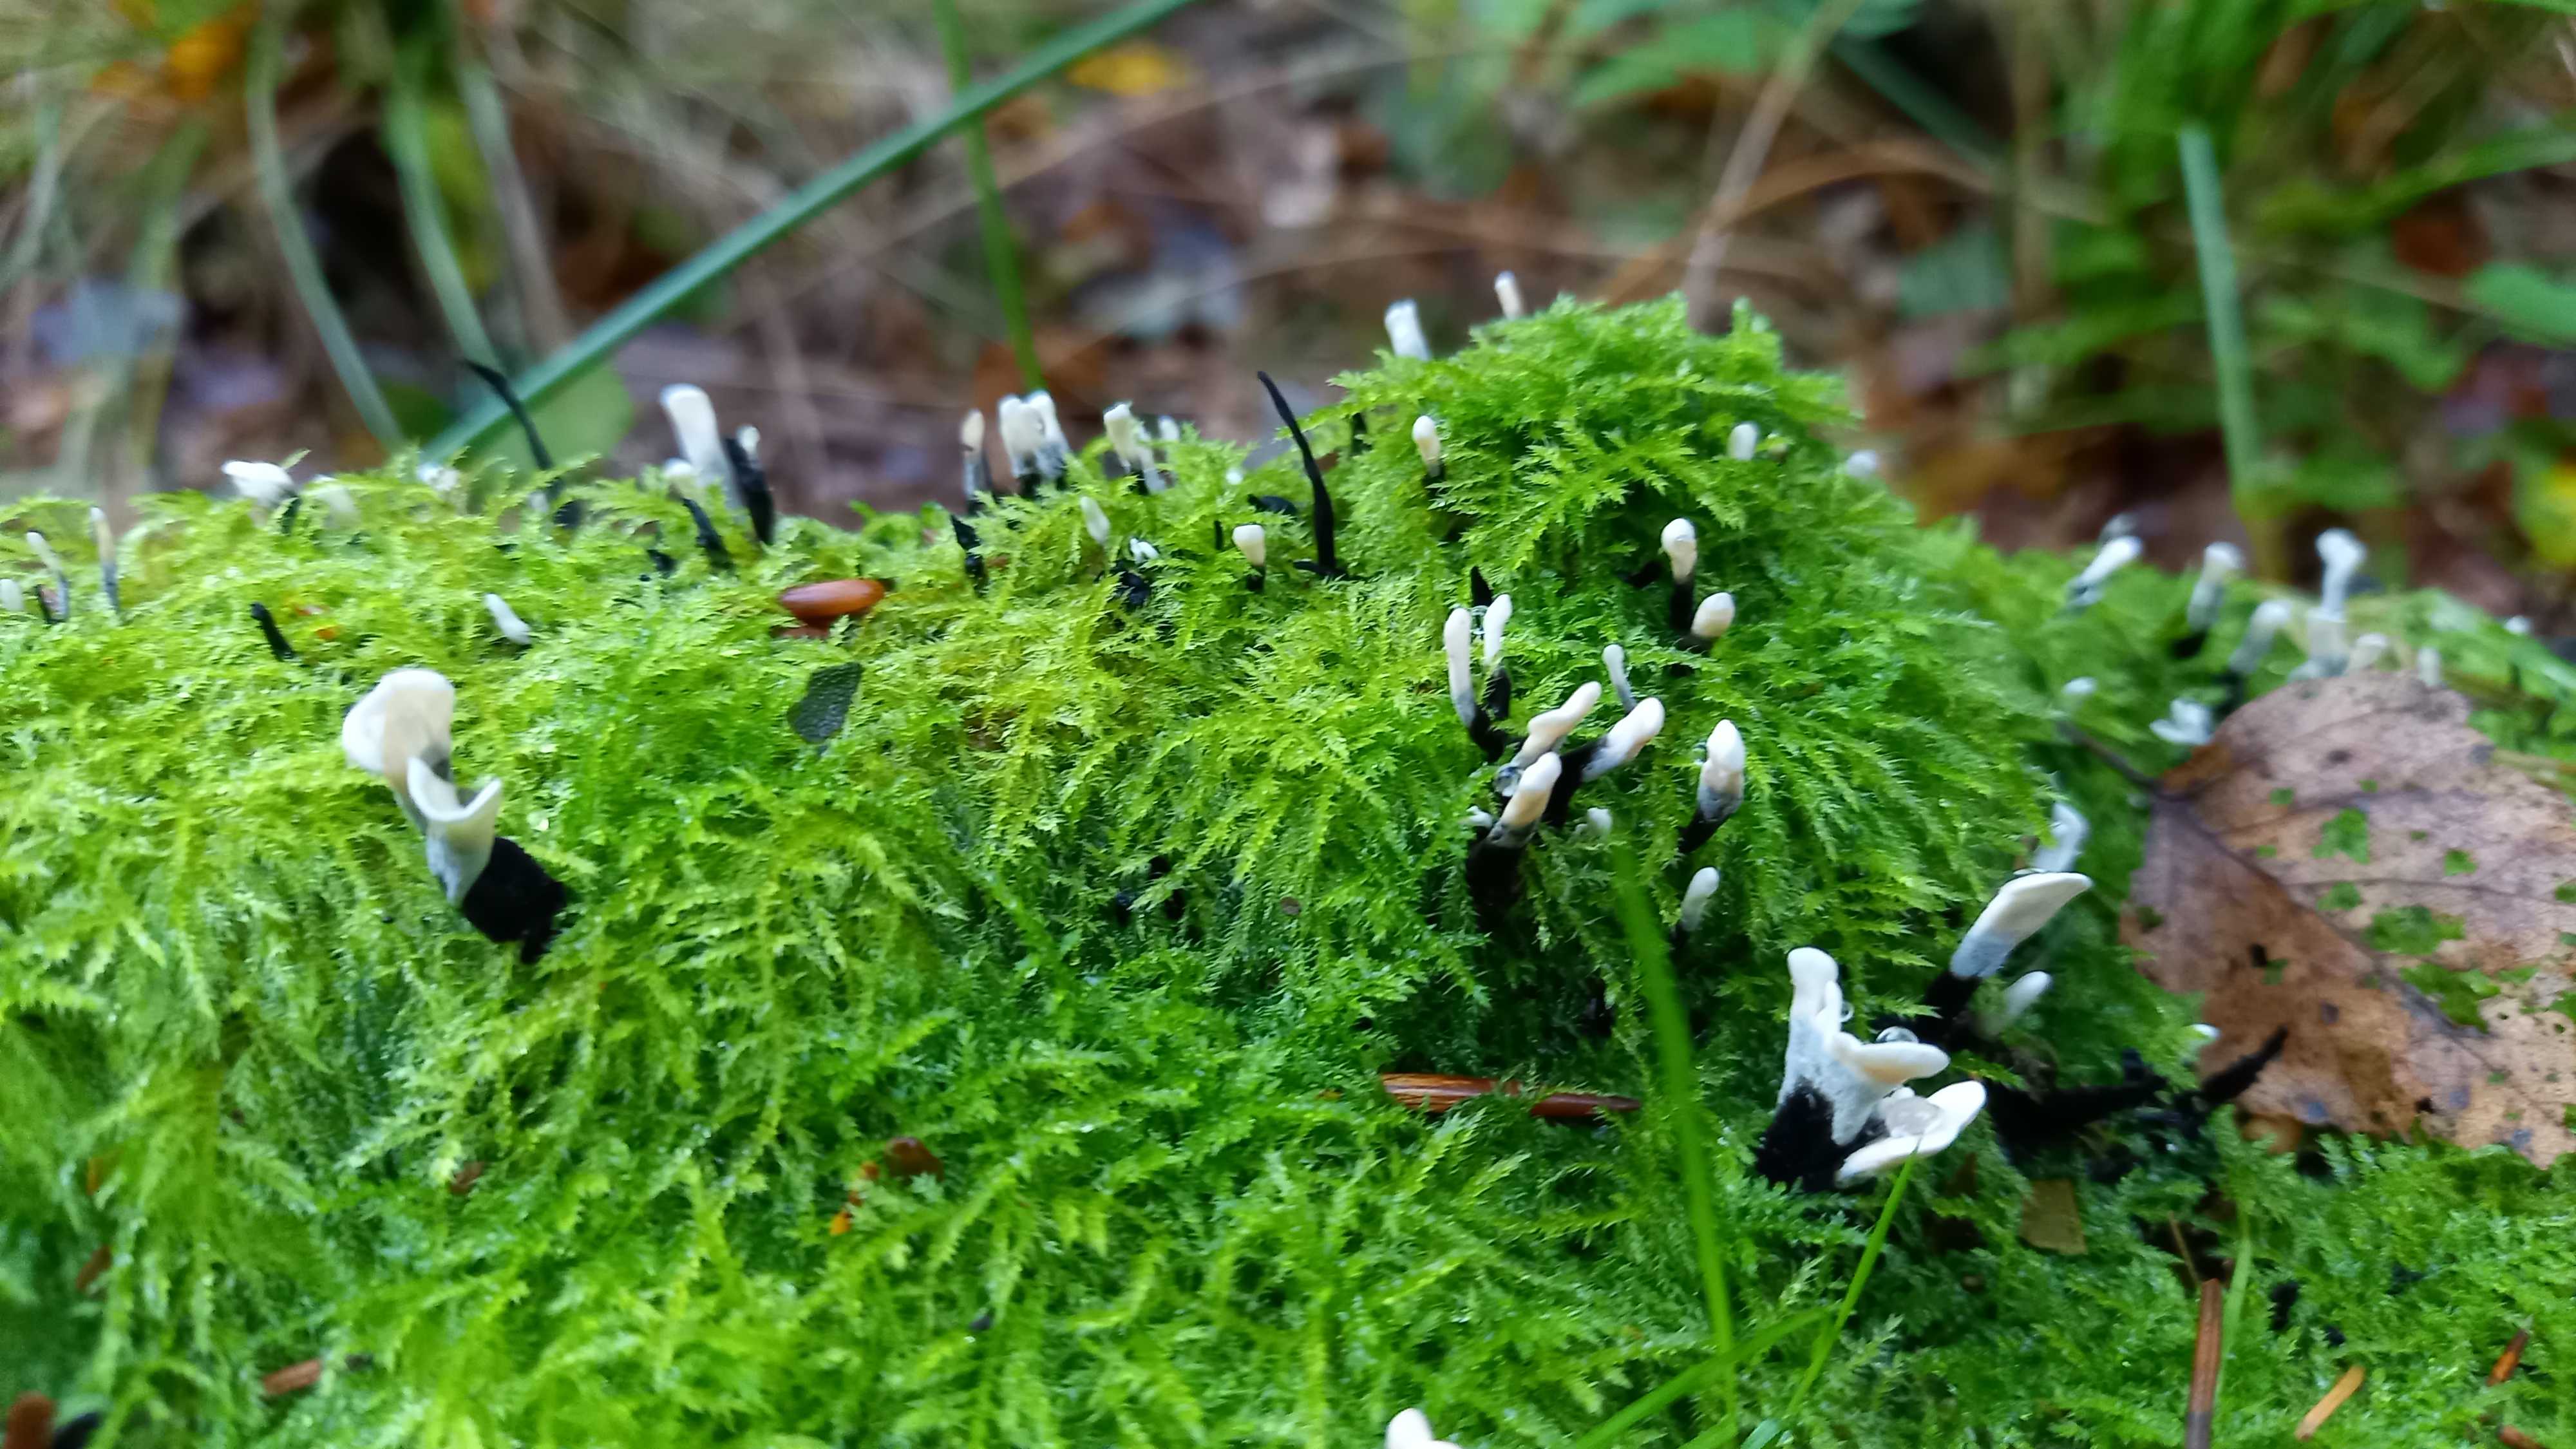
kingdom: Fungi
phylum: Ascomycota
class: Sordariomycetes
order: Xylariales
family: Xylariaceae
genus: Xylaria
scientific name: Xylaria hypoxylon
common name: grenet stødsvamp
